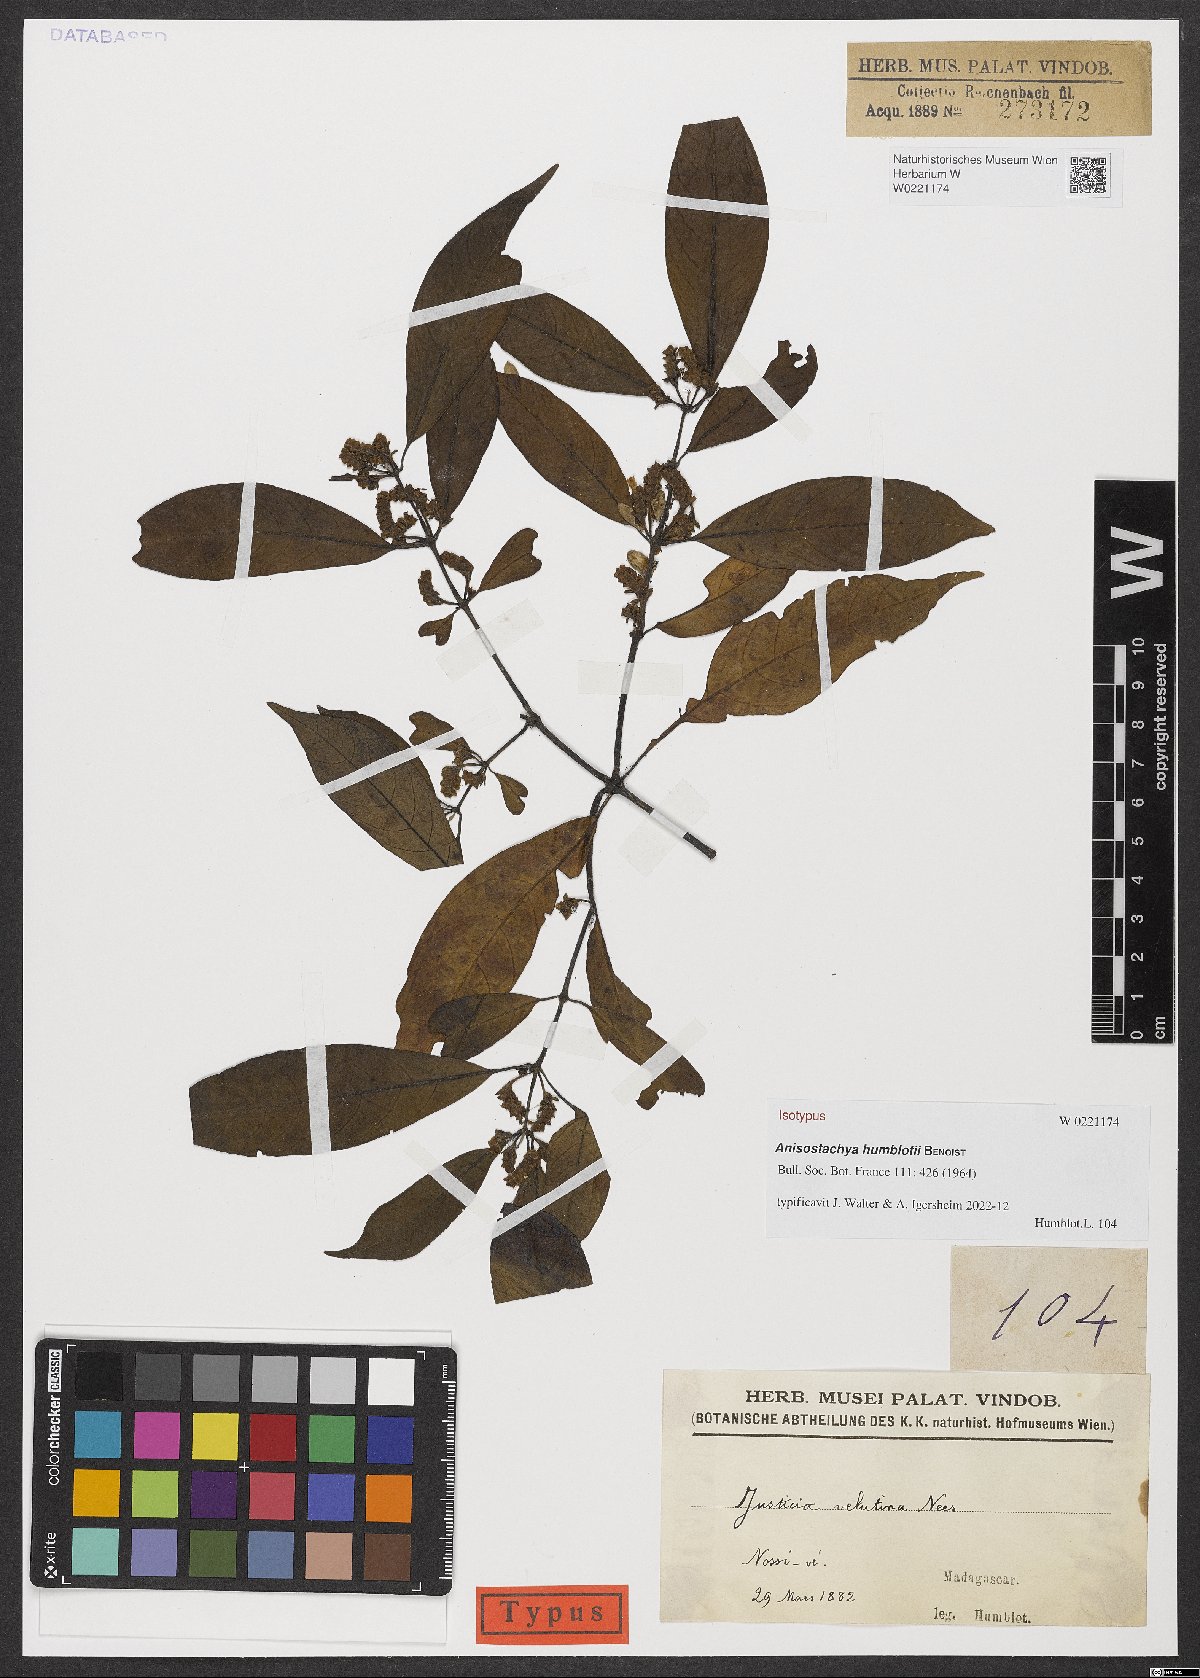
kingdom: Plantae
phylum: Tracheophyta
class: Magnoliopsida
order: Lamiales
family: Acanthaceae
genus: Anisostachya
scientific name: Anisostachya humblotii
